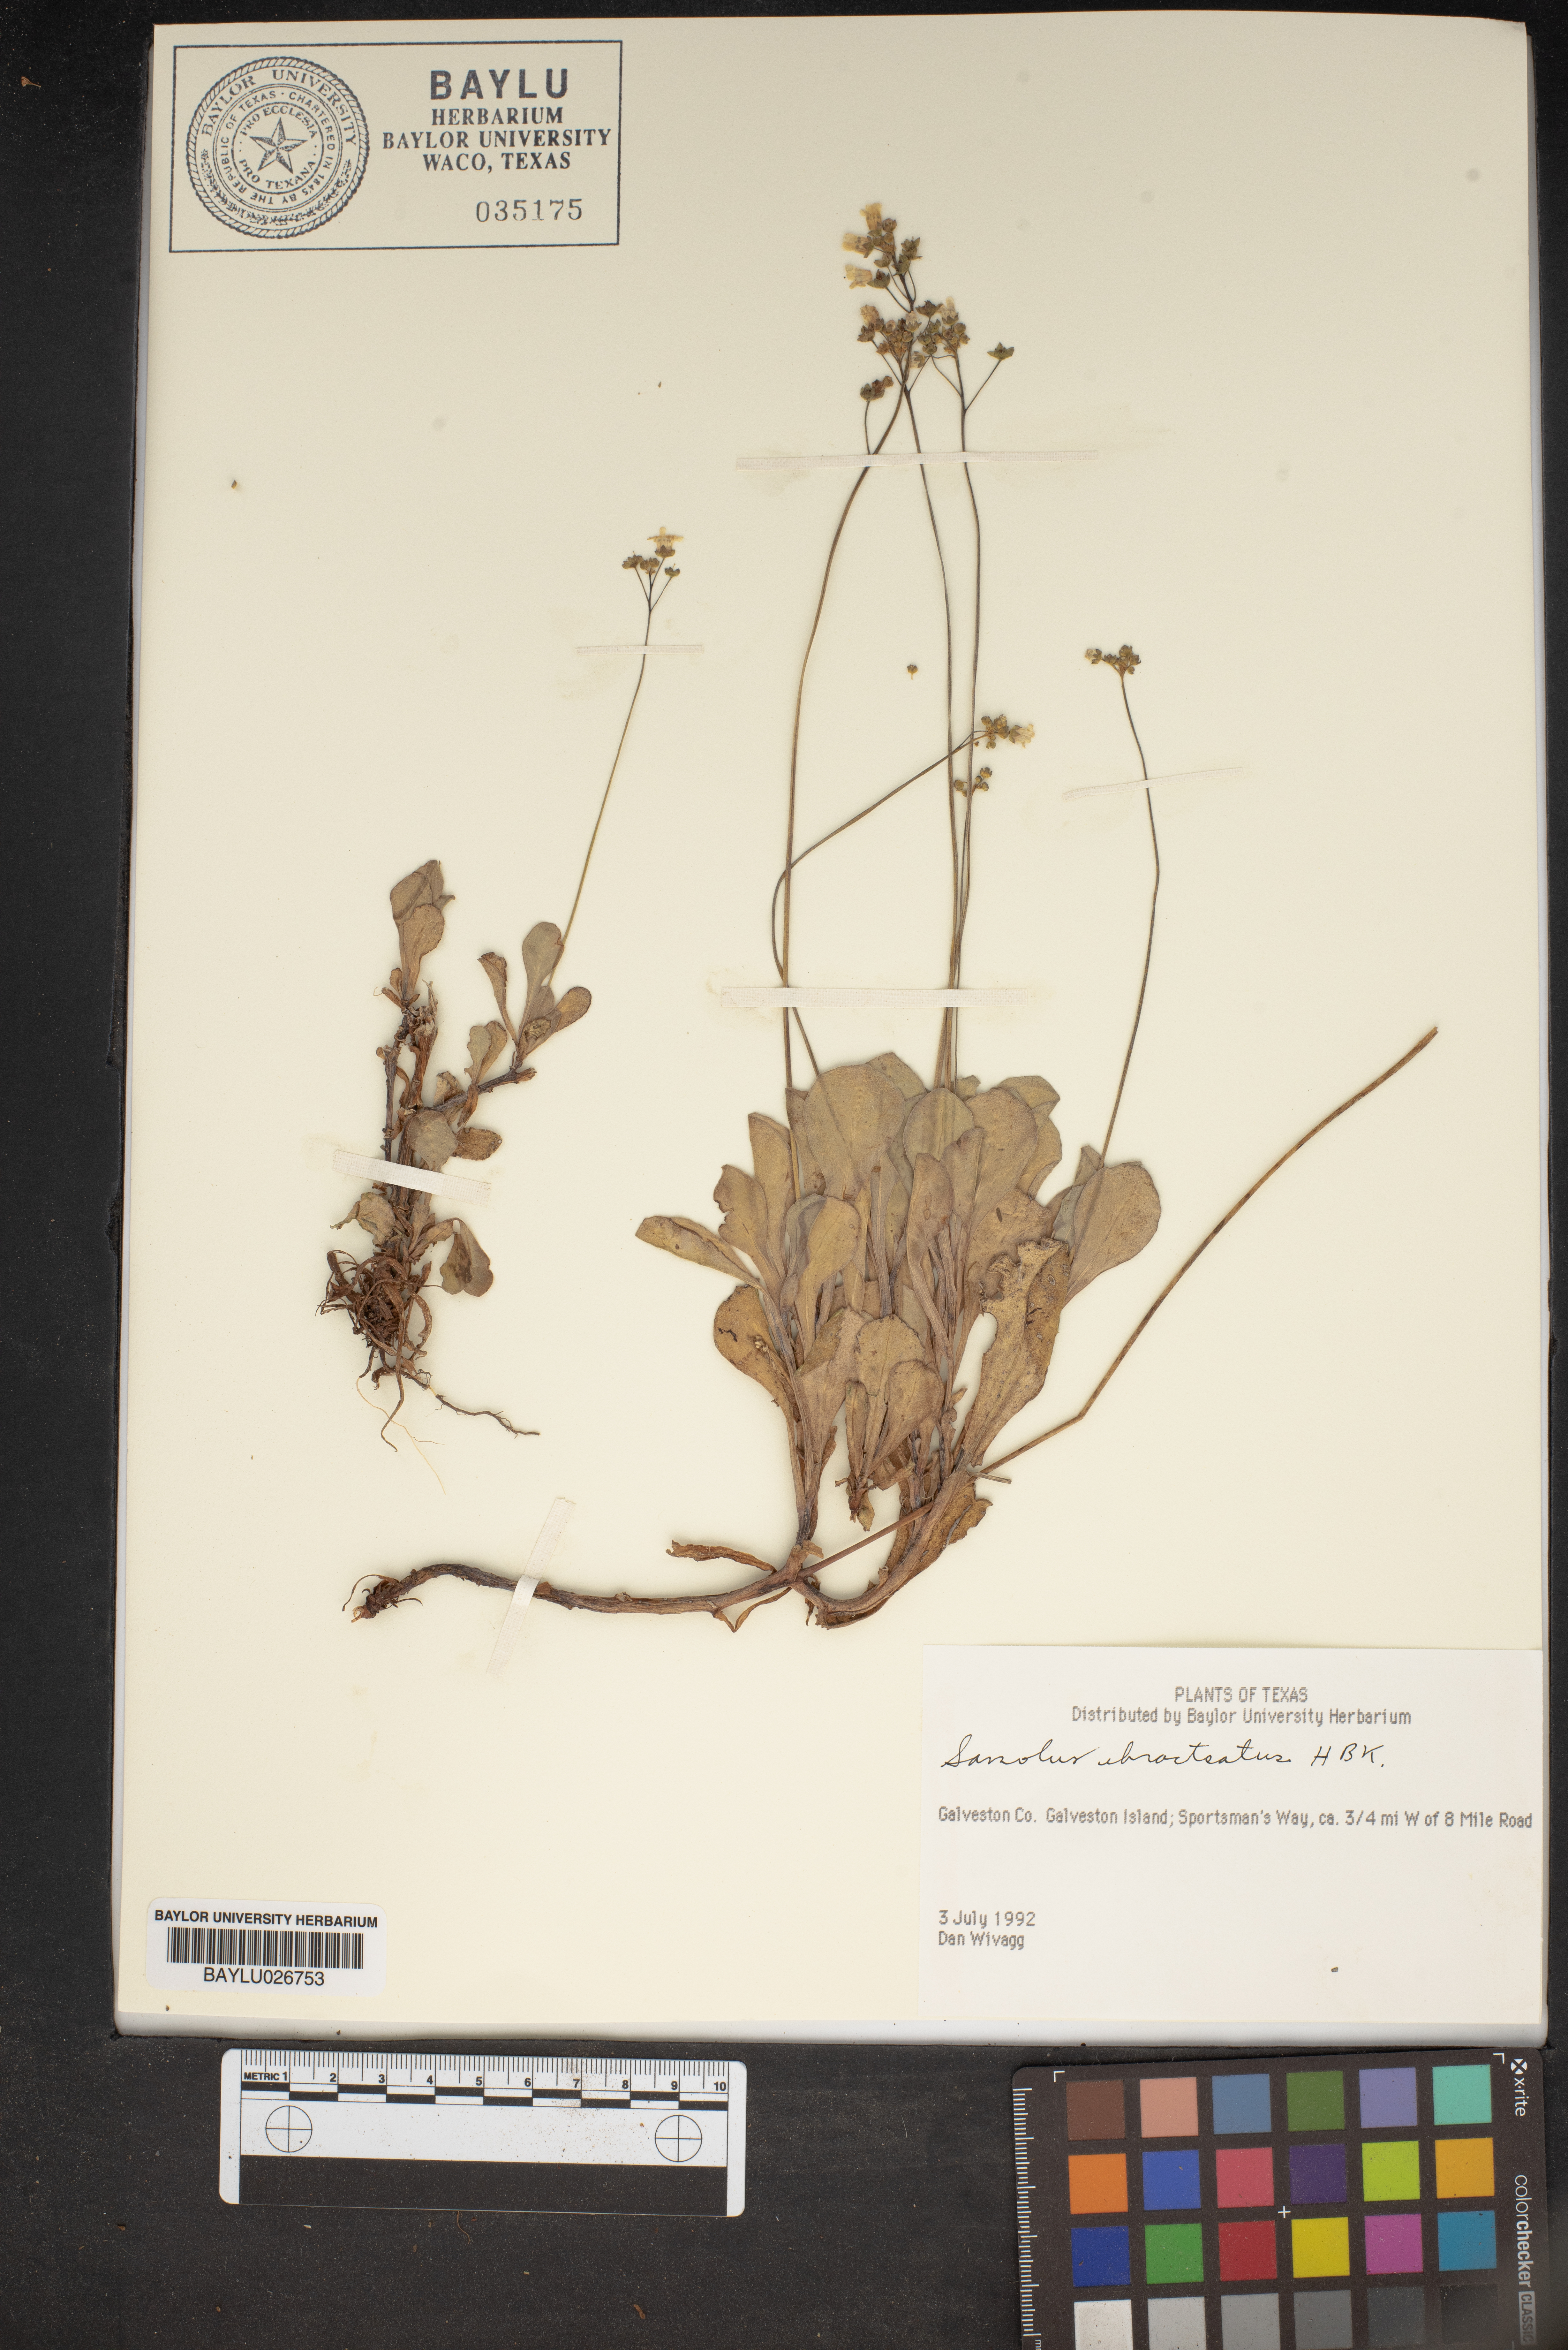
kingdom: Plantae
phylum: Tracheophyta
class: Magnoliopsida
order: Ericales
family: Primulaceae
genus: Samolus
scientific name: Samolus ebracteatus
